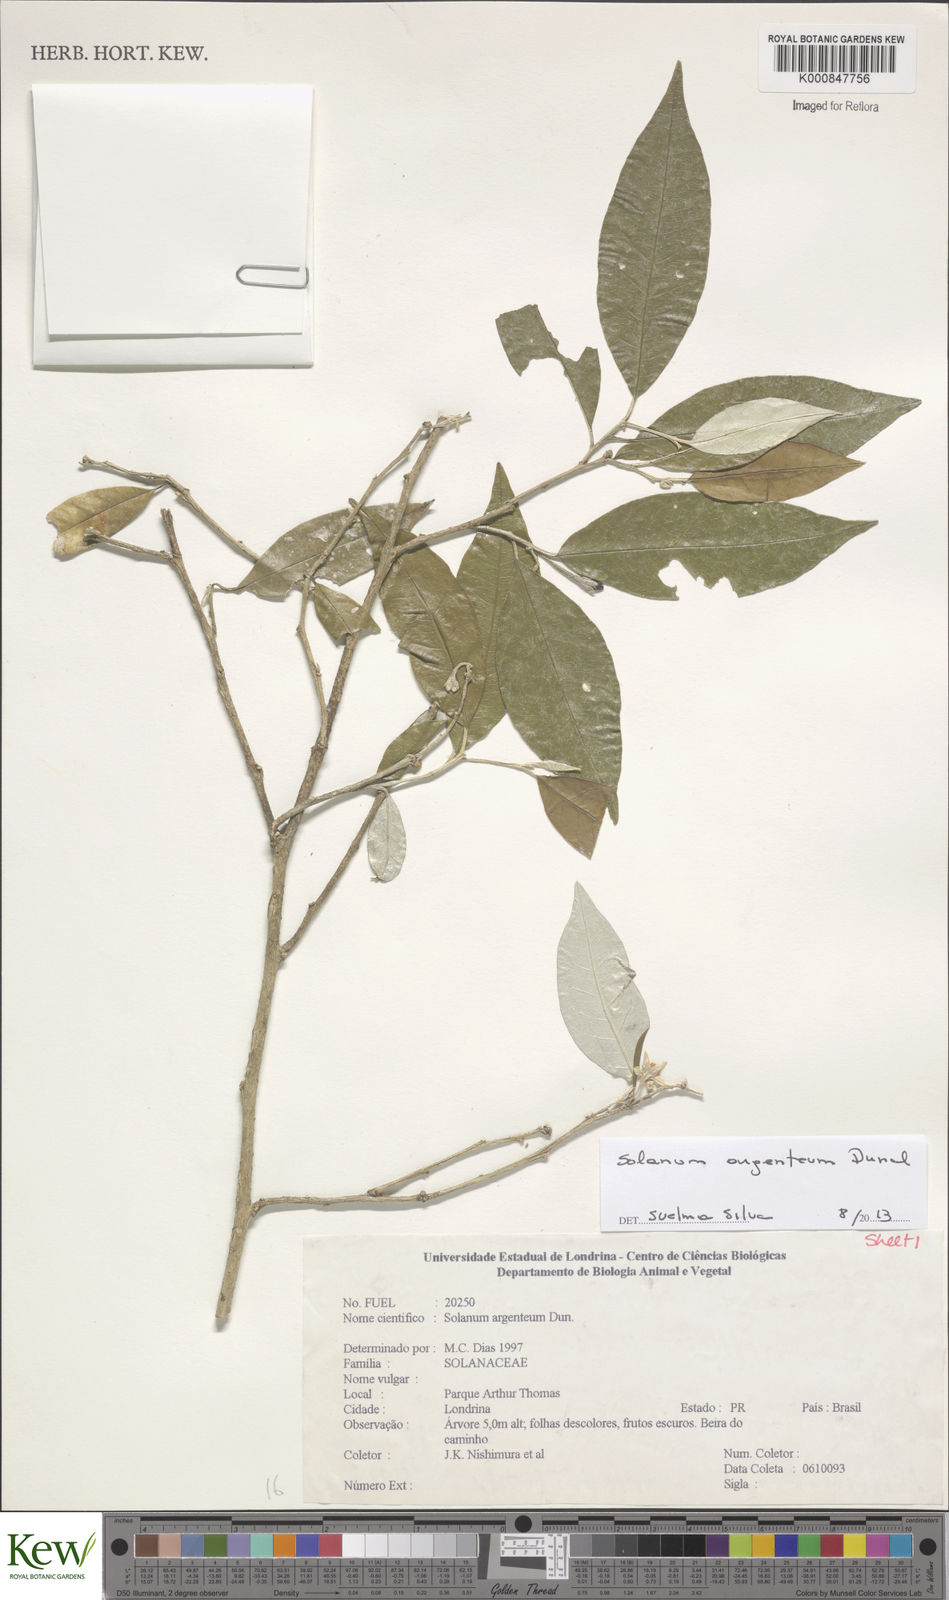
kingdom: Plantae
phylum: Tracheophyta
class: Magnoliopsida
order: Solanales
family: Solanaceae
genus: Solanum
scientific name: Solanum swartzianum
